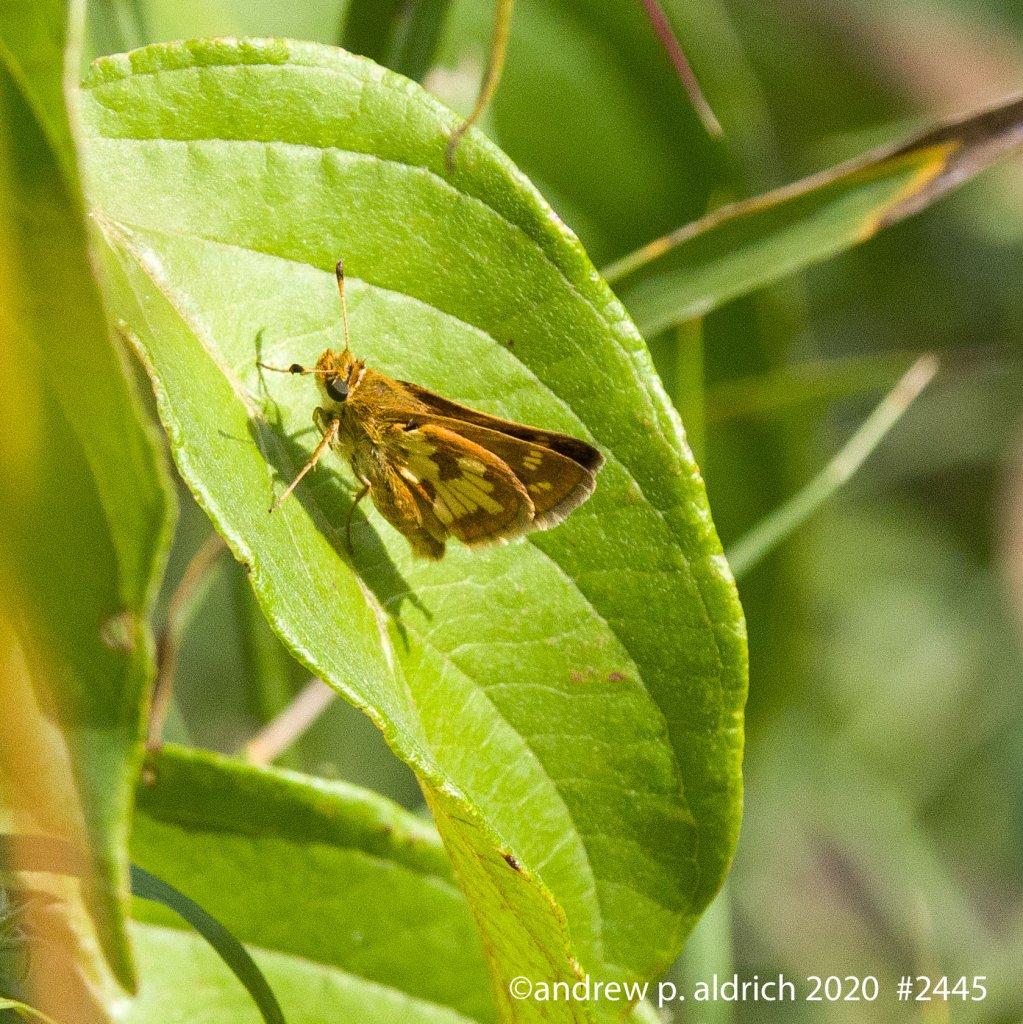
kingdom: Animalia
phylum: Arthropoda
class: Insecta
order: Lepidoptera
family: Hesperiidae
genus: Polites
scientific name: Polites coras
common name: Peck's Skipper
